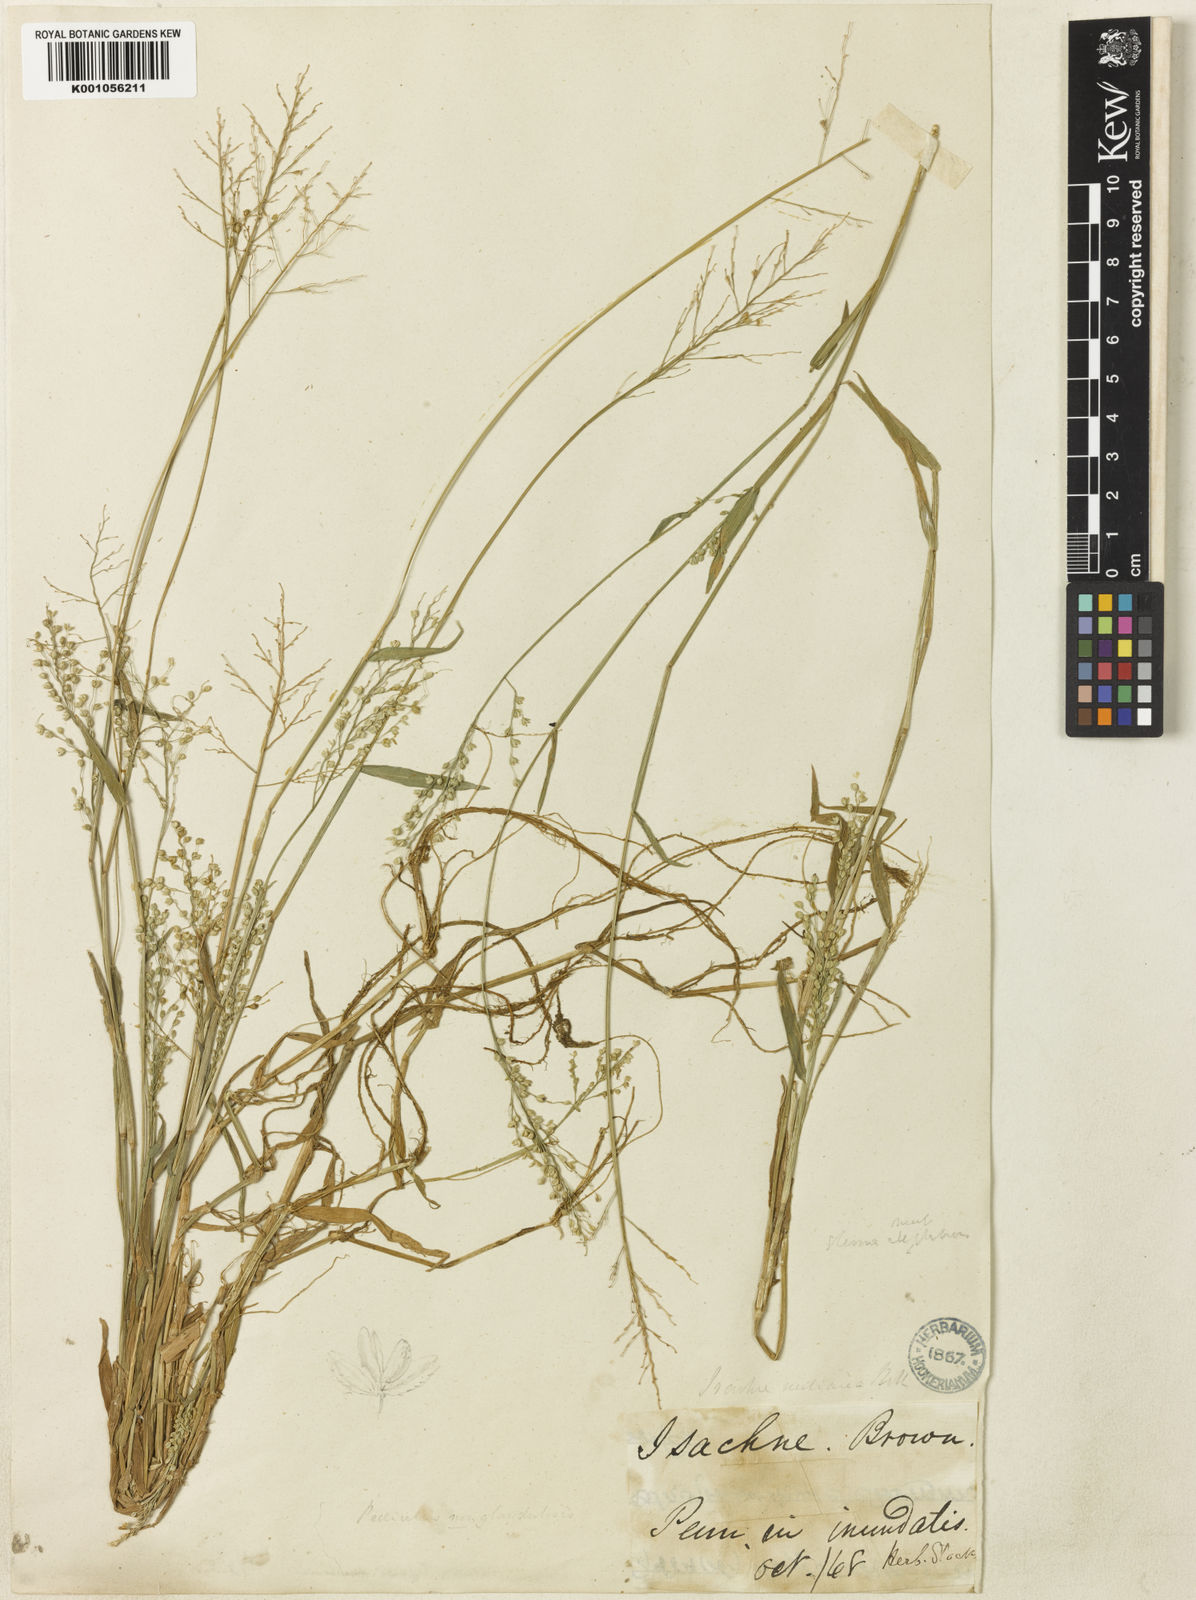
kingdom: Plantae
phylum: Tracheophyta
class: Liliopsida
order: Poales
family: Poaceae
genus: Isachne
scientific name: Isachne elegans
